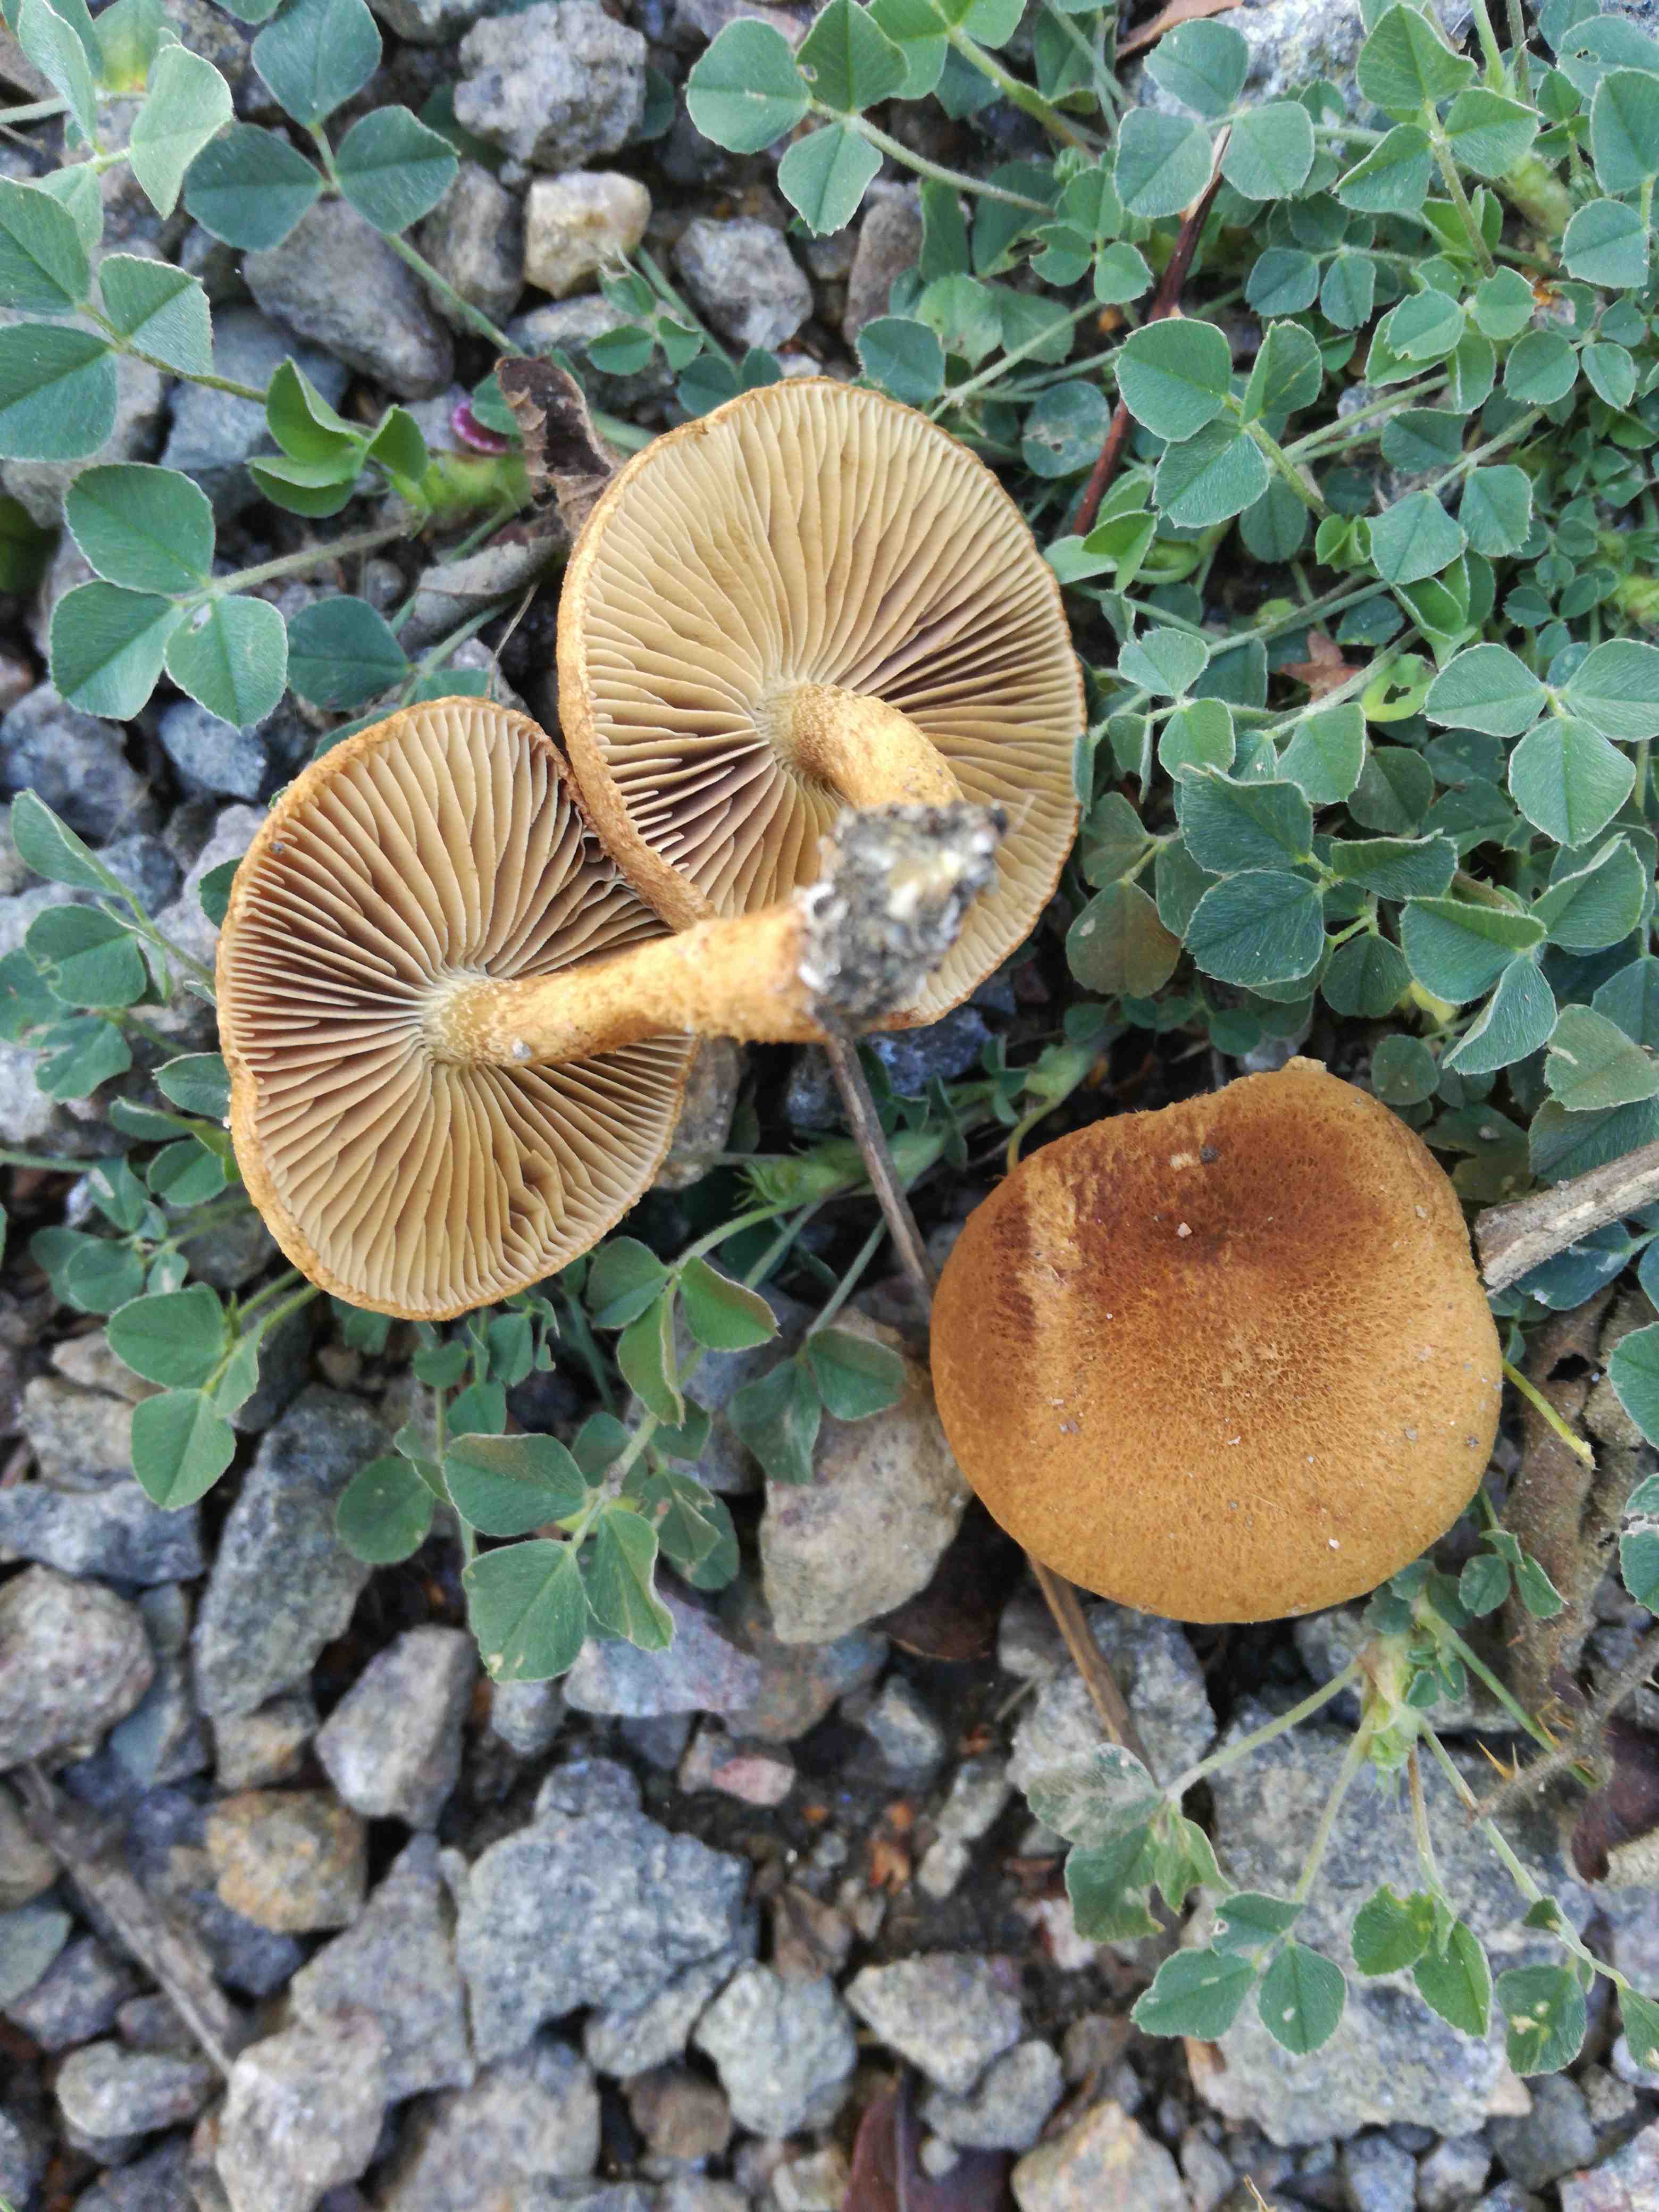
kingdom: Fungi
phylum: Basidiomycota
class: Agaricomycetes
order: Agaricales
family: Inocybaceae
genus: Inocybe
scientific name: Inocybe dulcamara
